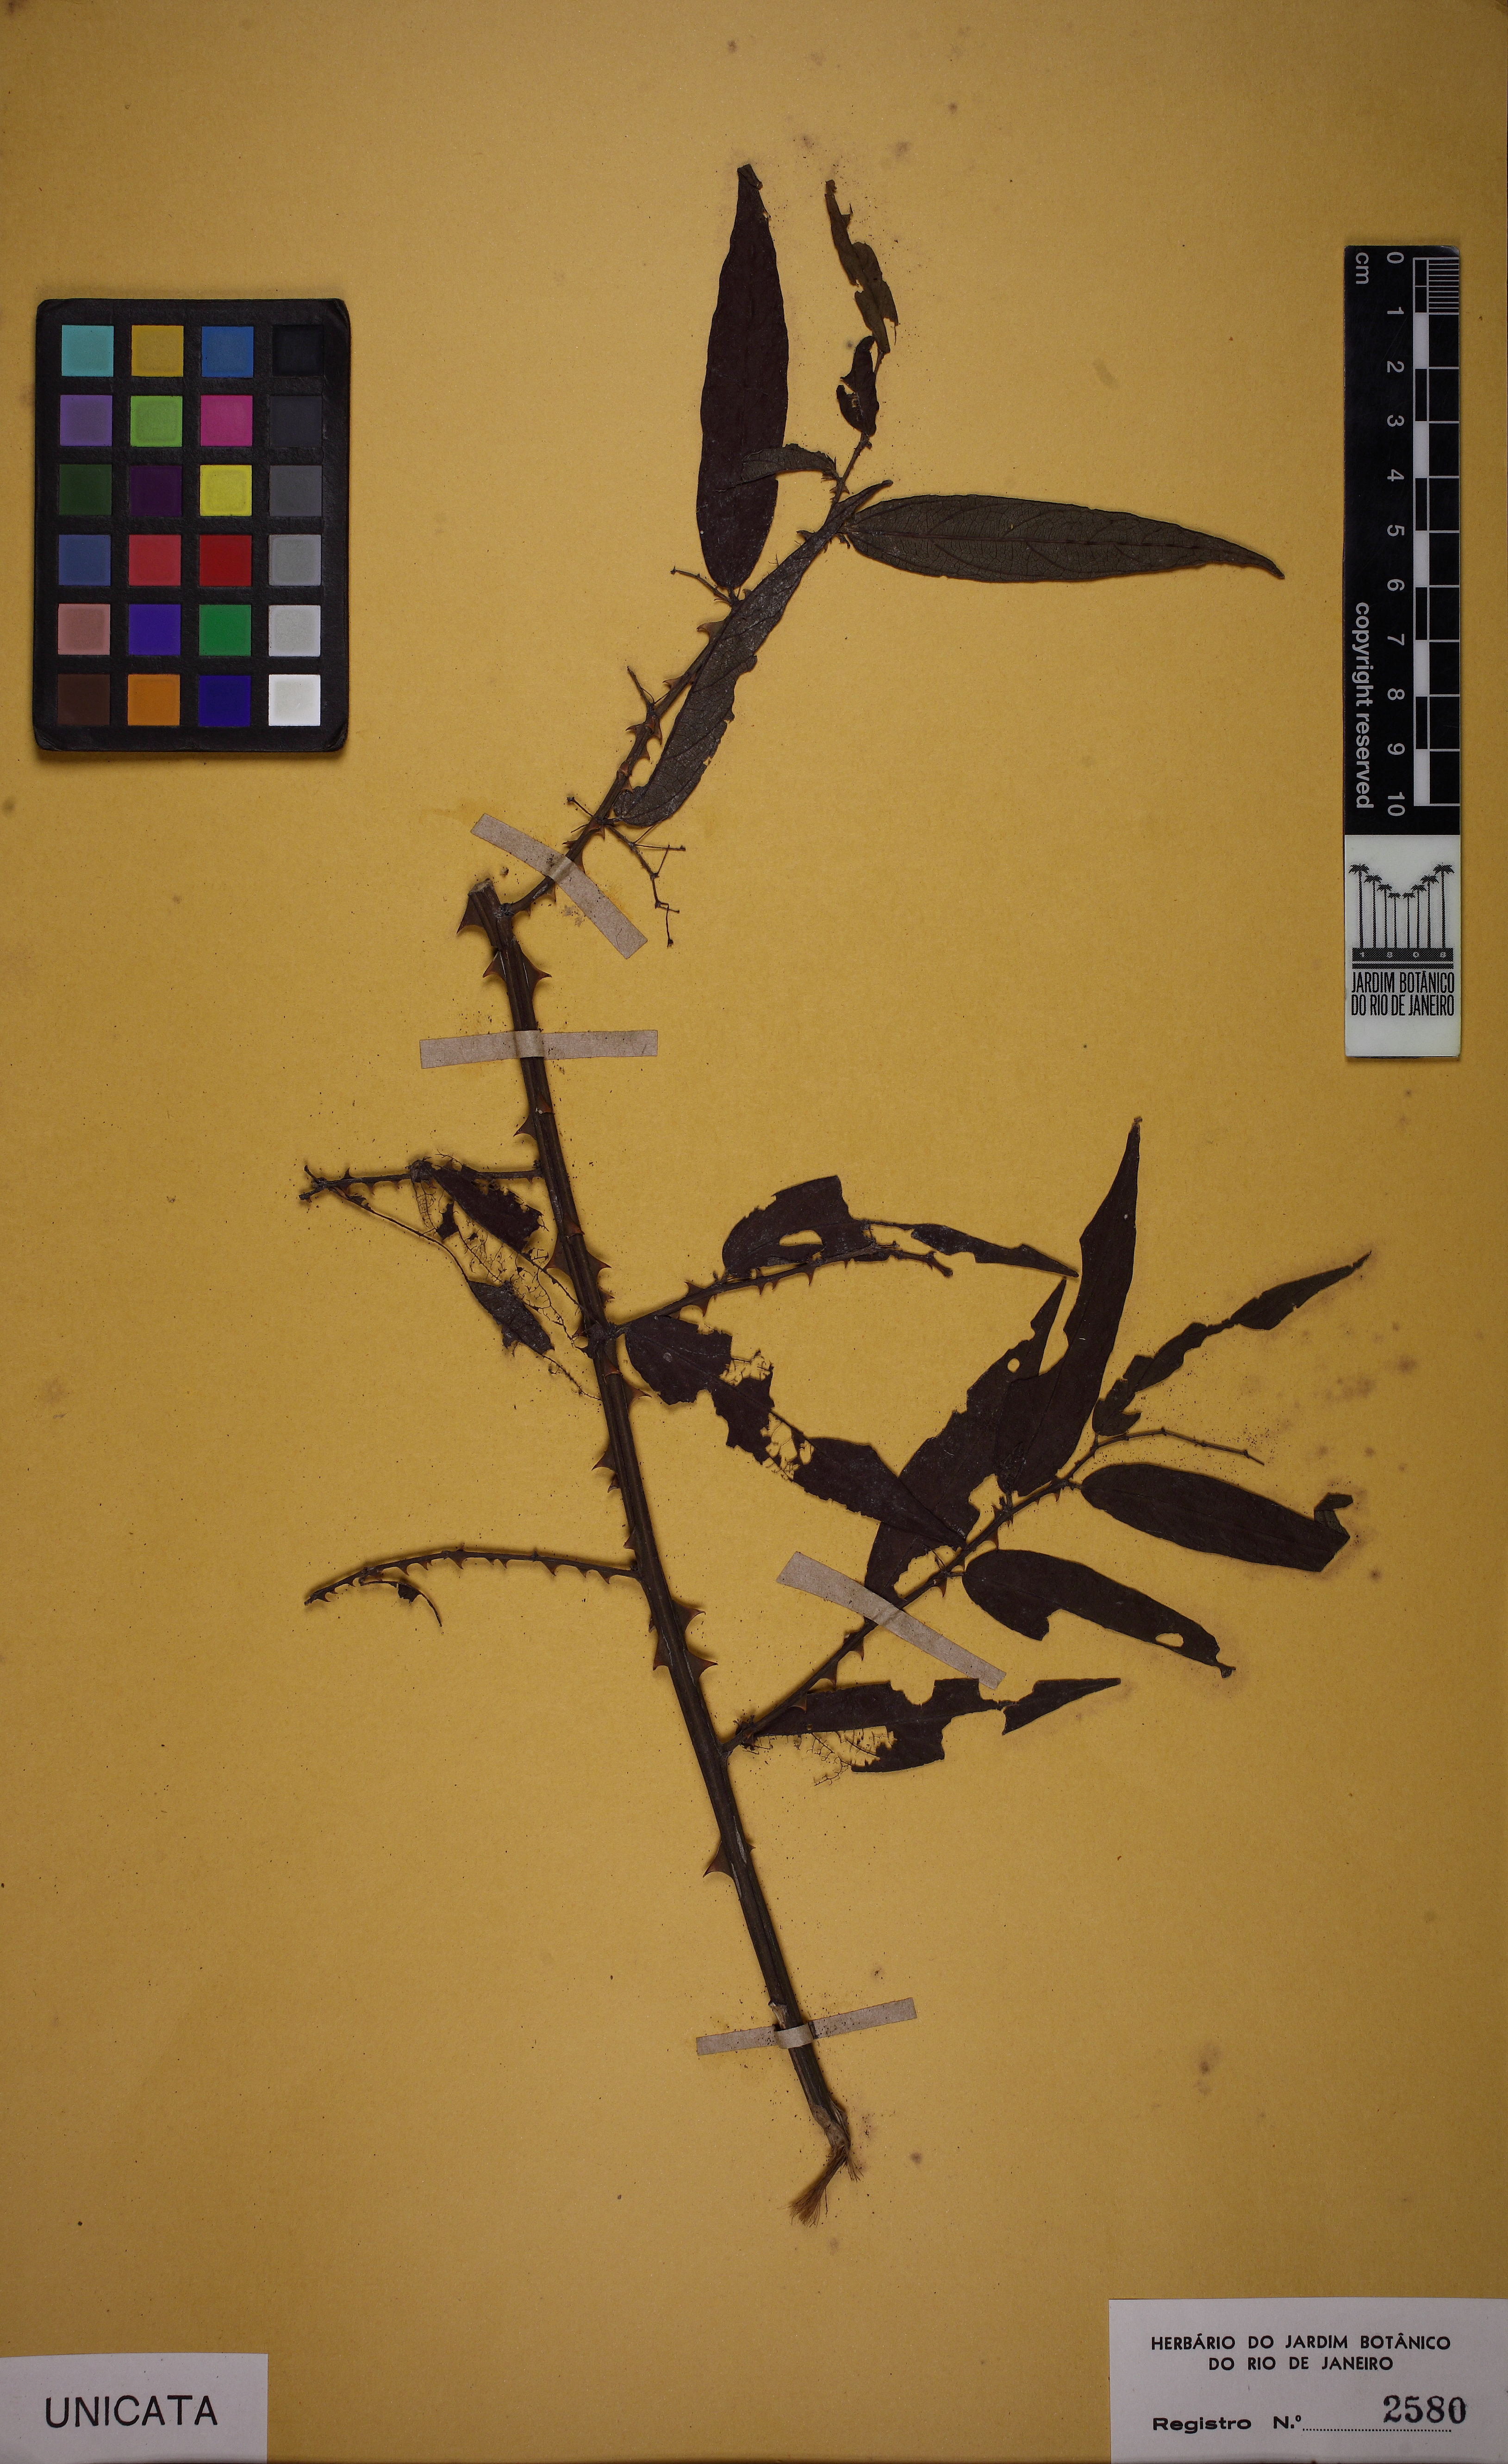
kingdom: Plantae
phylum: Tracheophyta
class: Magnoliopsida
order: Malvales
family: Malvaceae
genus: Byttneria
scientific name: Byttneria obliqua
